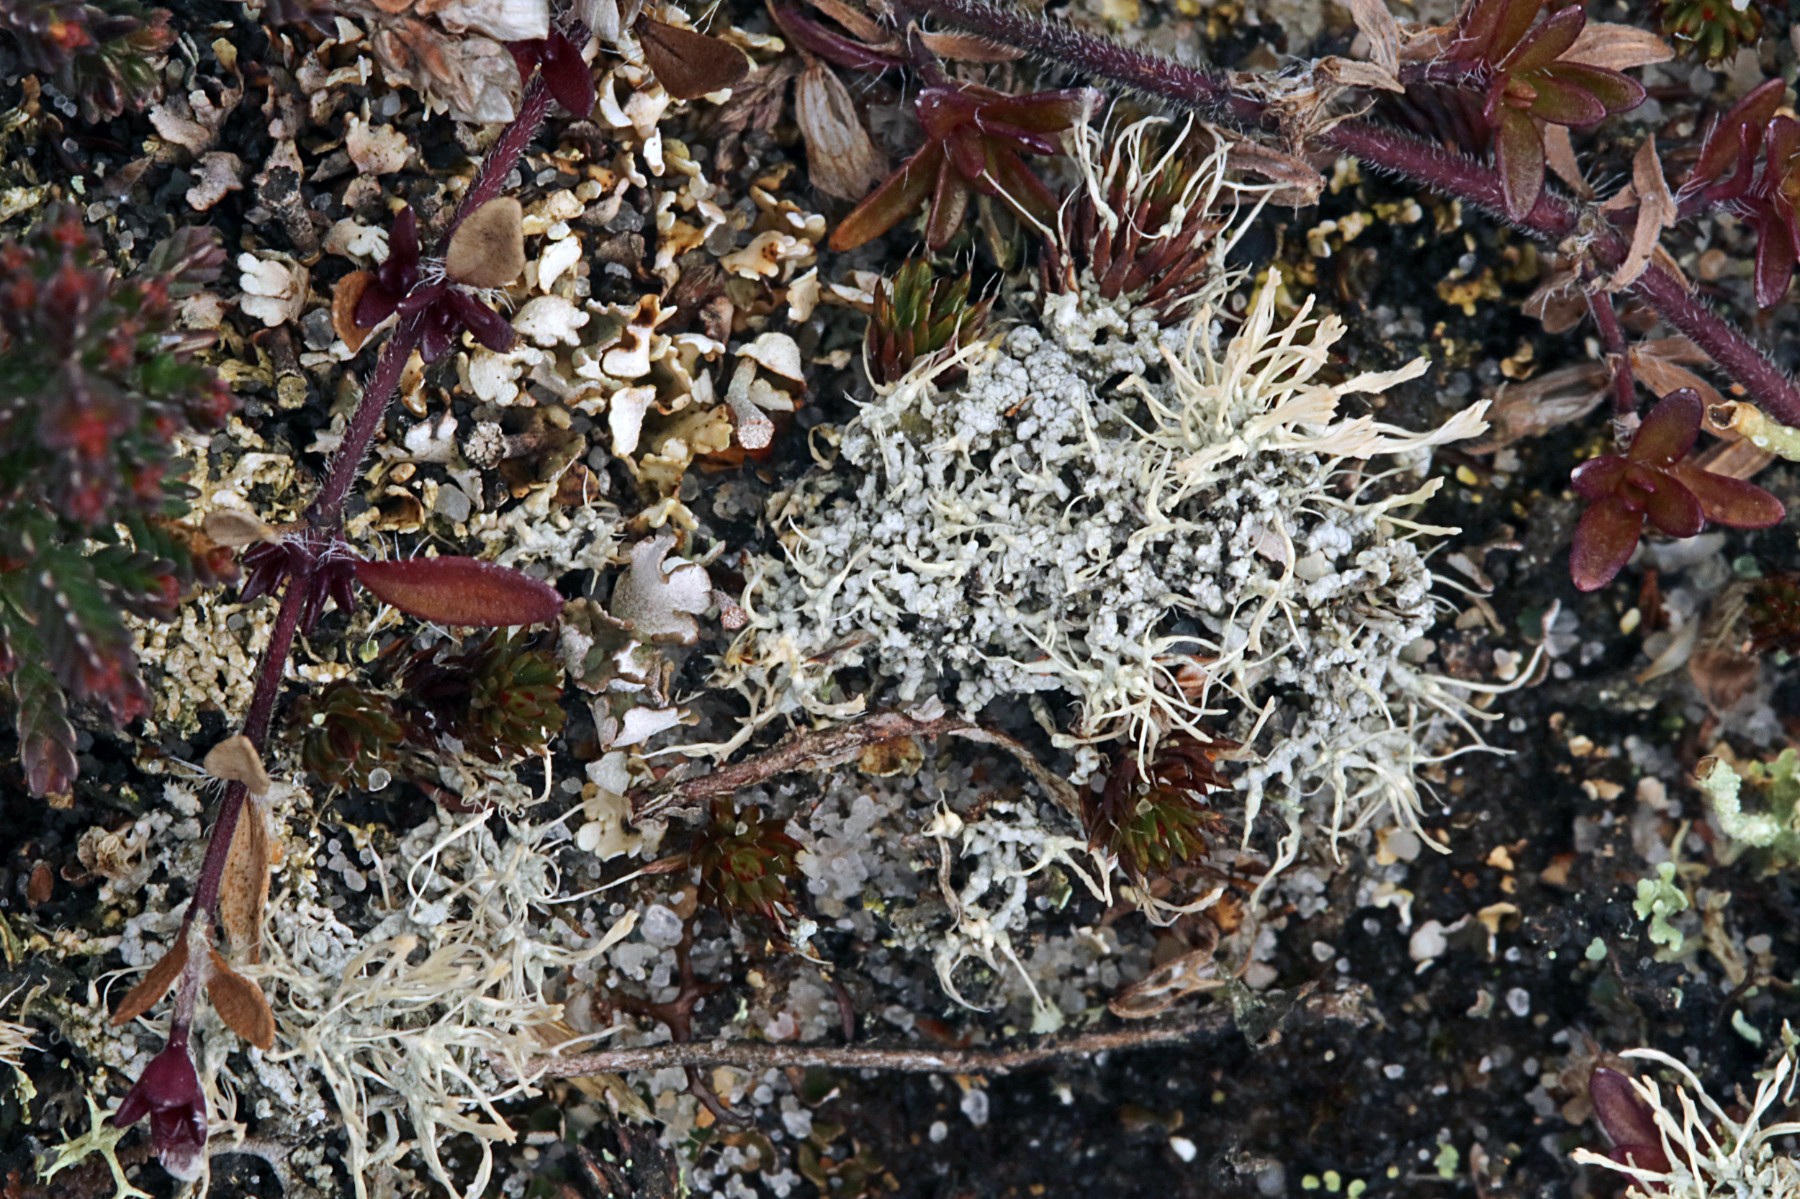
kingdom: Fungi
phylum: Ascomycota
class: Lecanoromycetes
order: Pertusariales
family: Ochrolechiaceae
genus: Ochrolechia
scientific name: Ochrolechia frigida
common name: fjeld-blegskivelav
